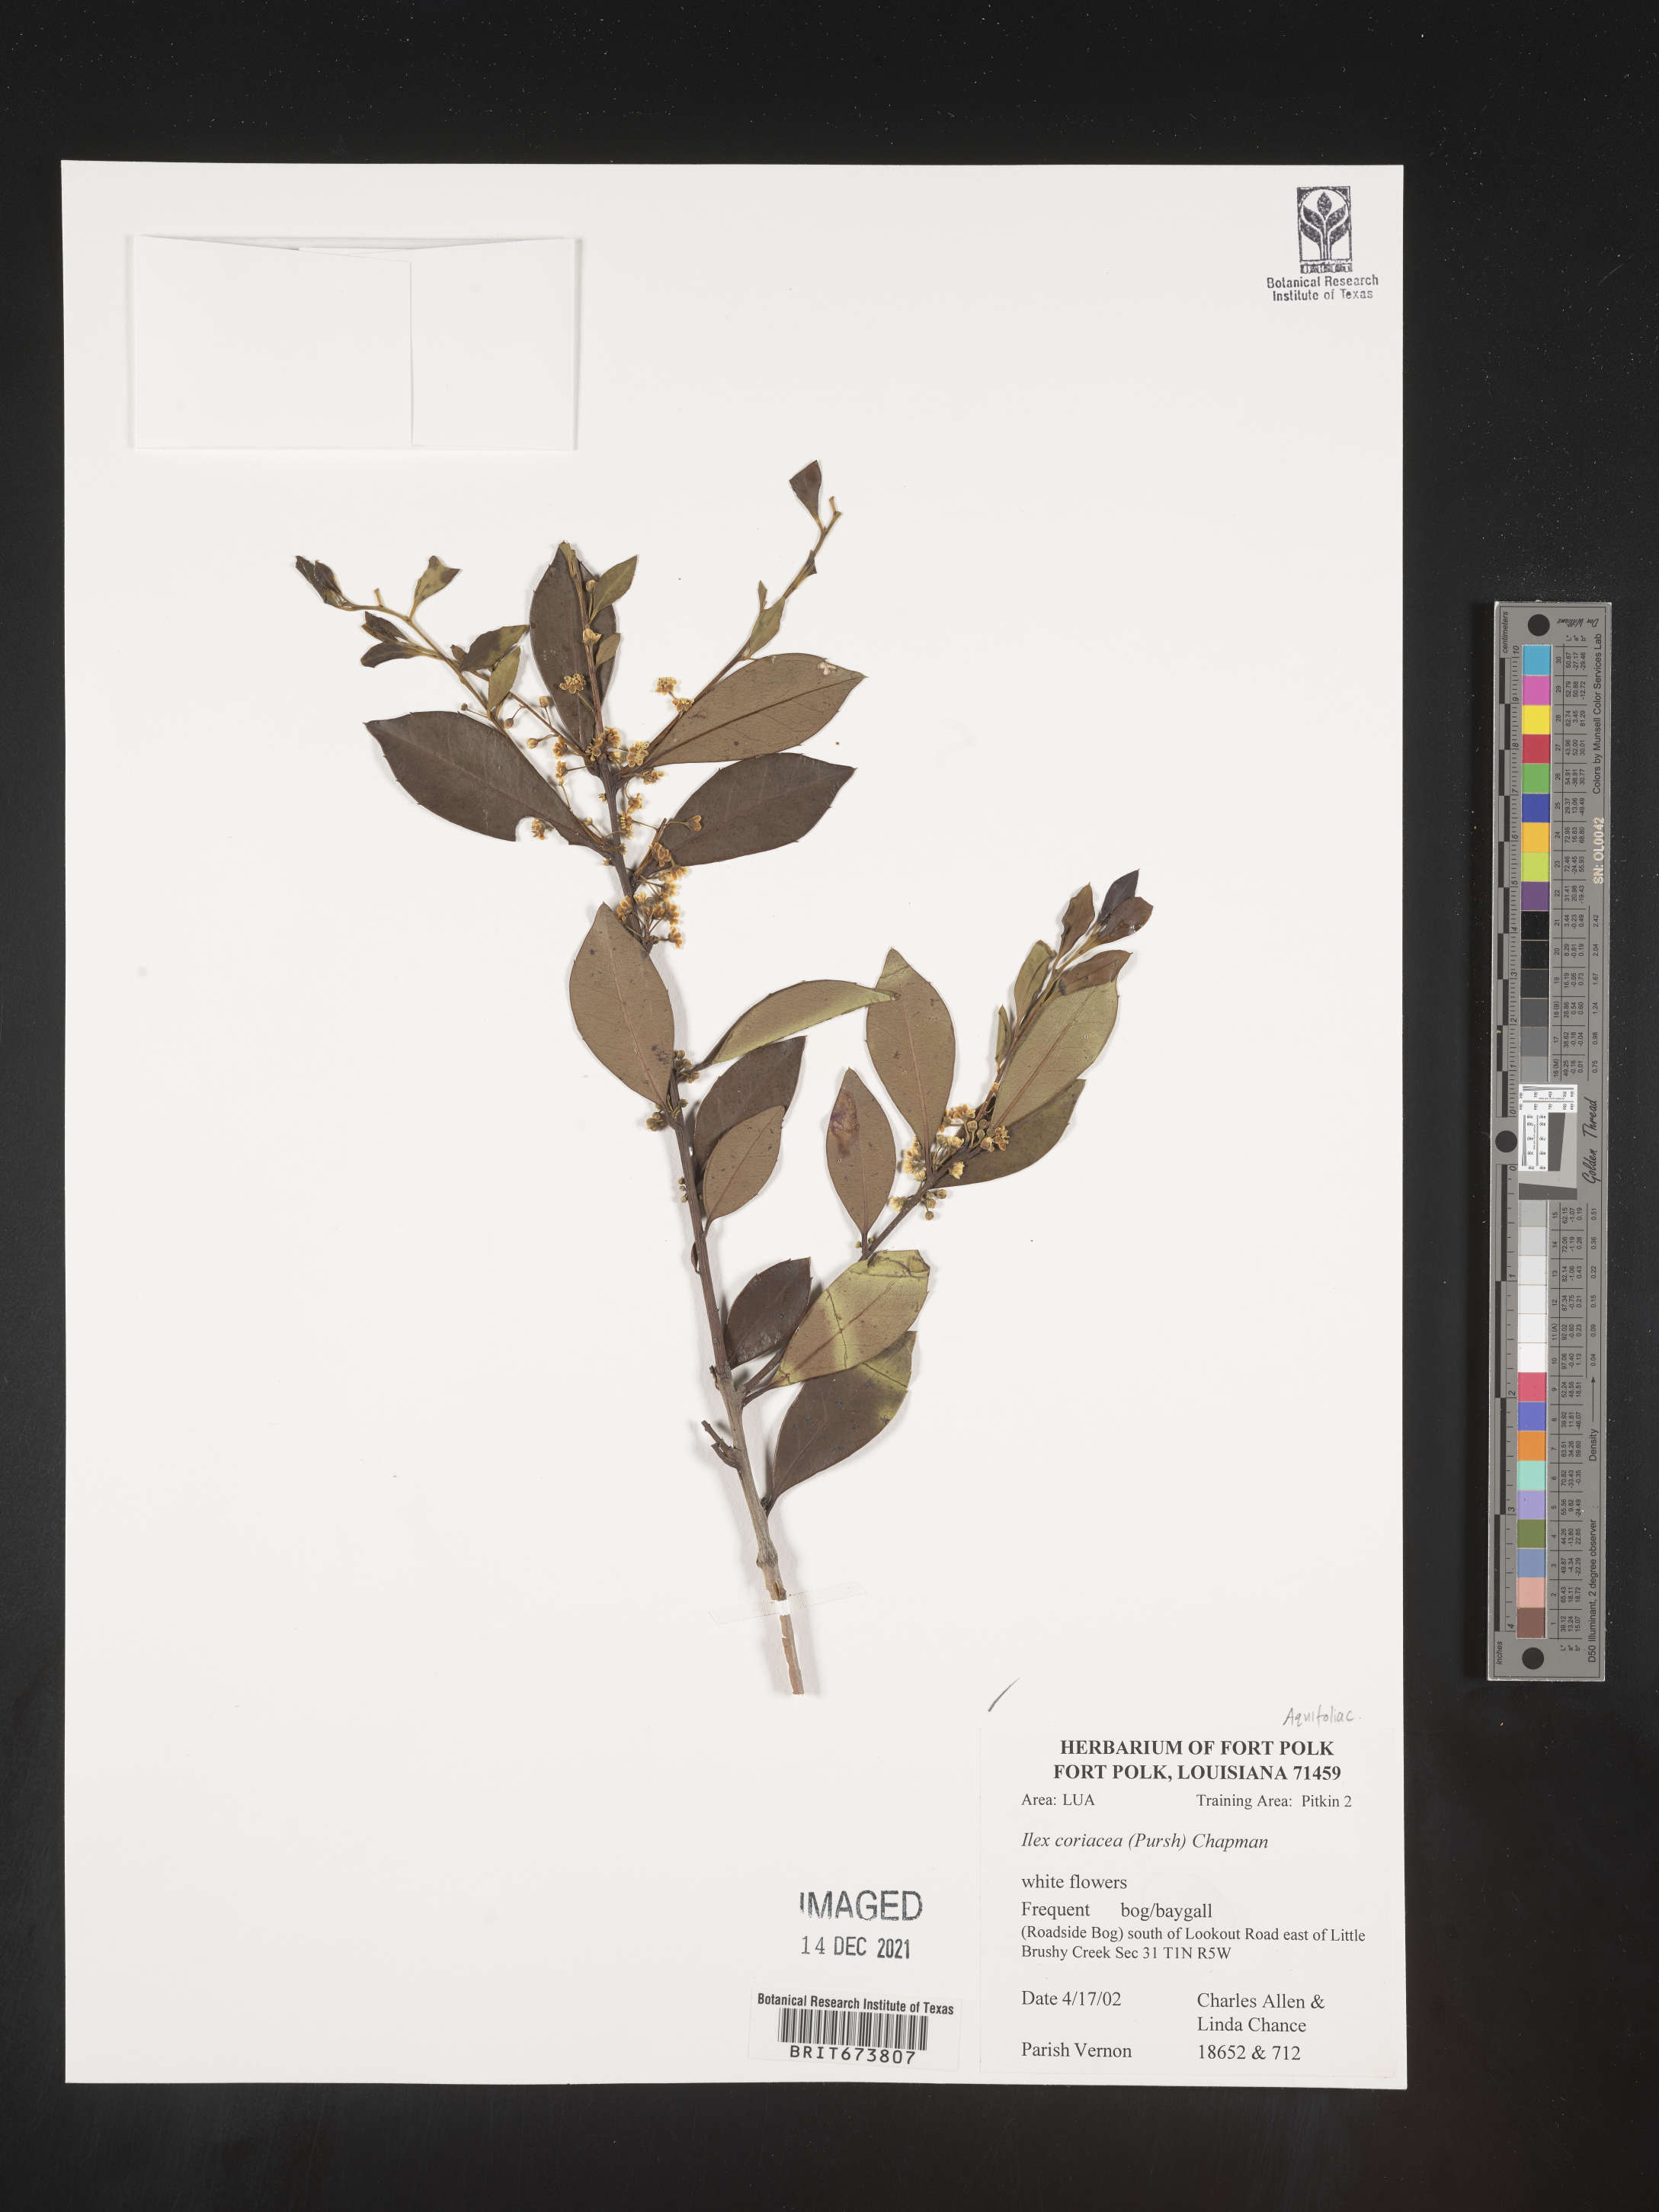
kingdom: Plantae
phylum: Tracheophyta
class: Magnoliopsida
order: Aquifoliales
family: Aquifoliaceae
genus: Ilex
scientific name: Ilex coriacea
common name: Sweet gallberry
